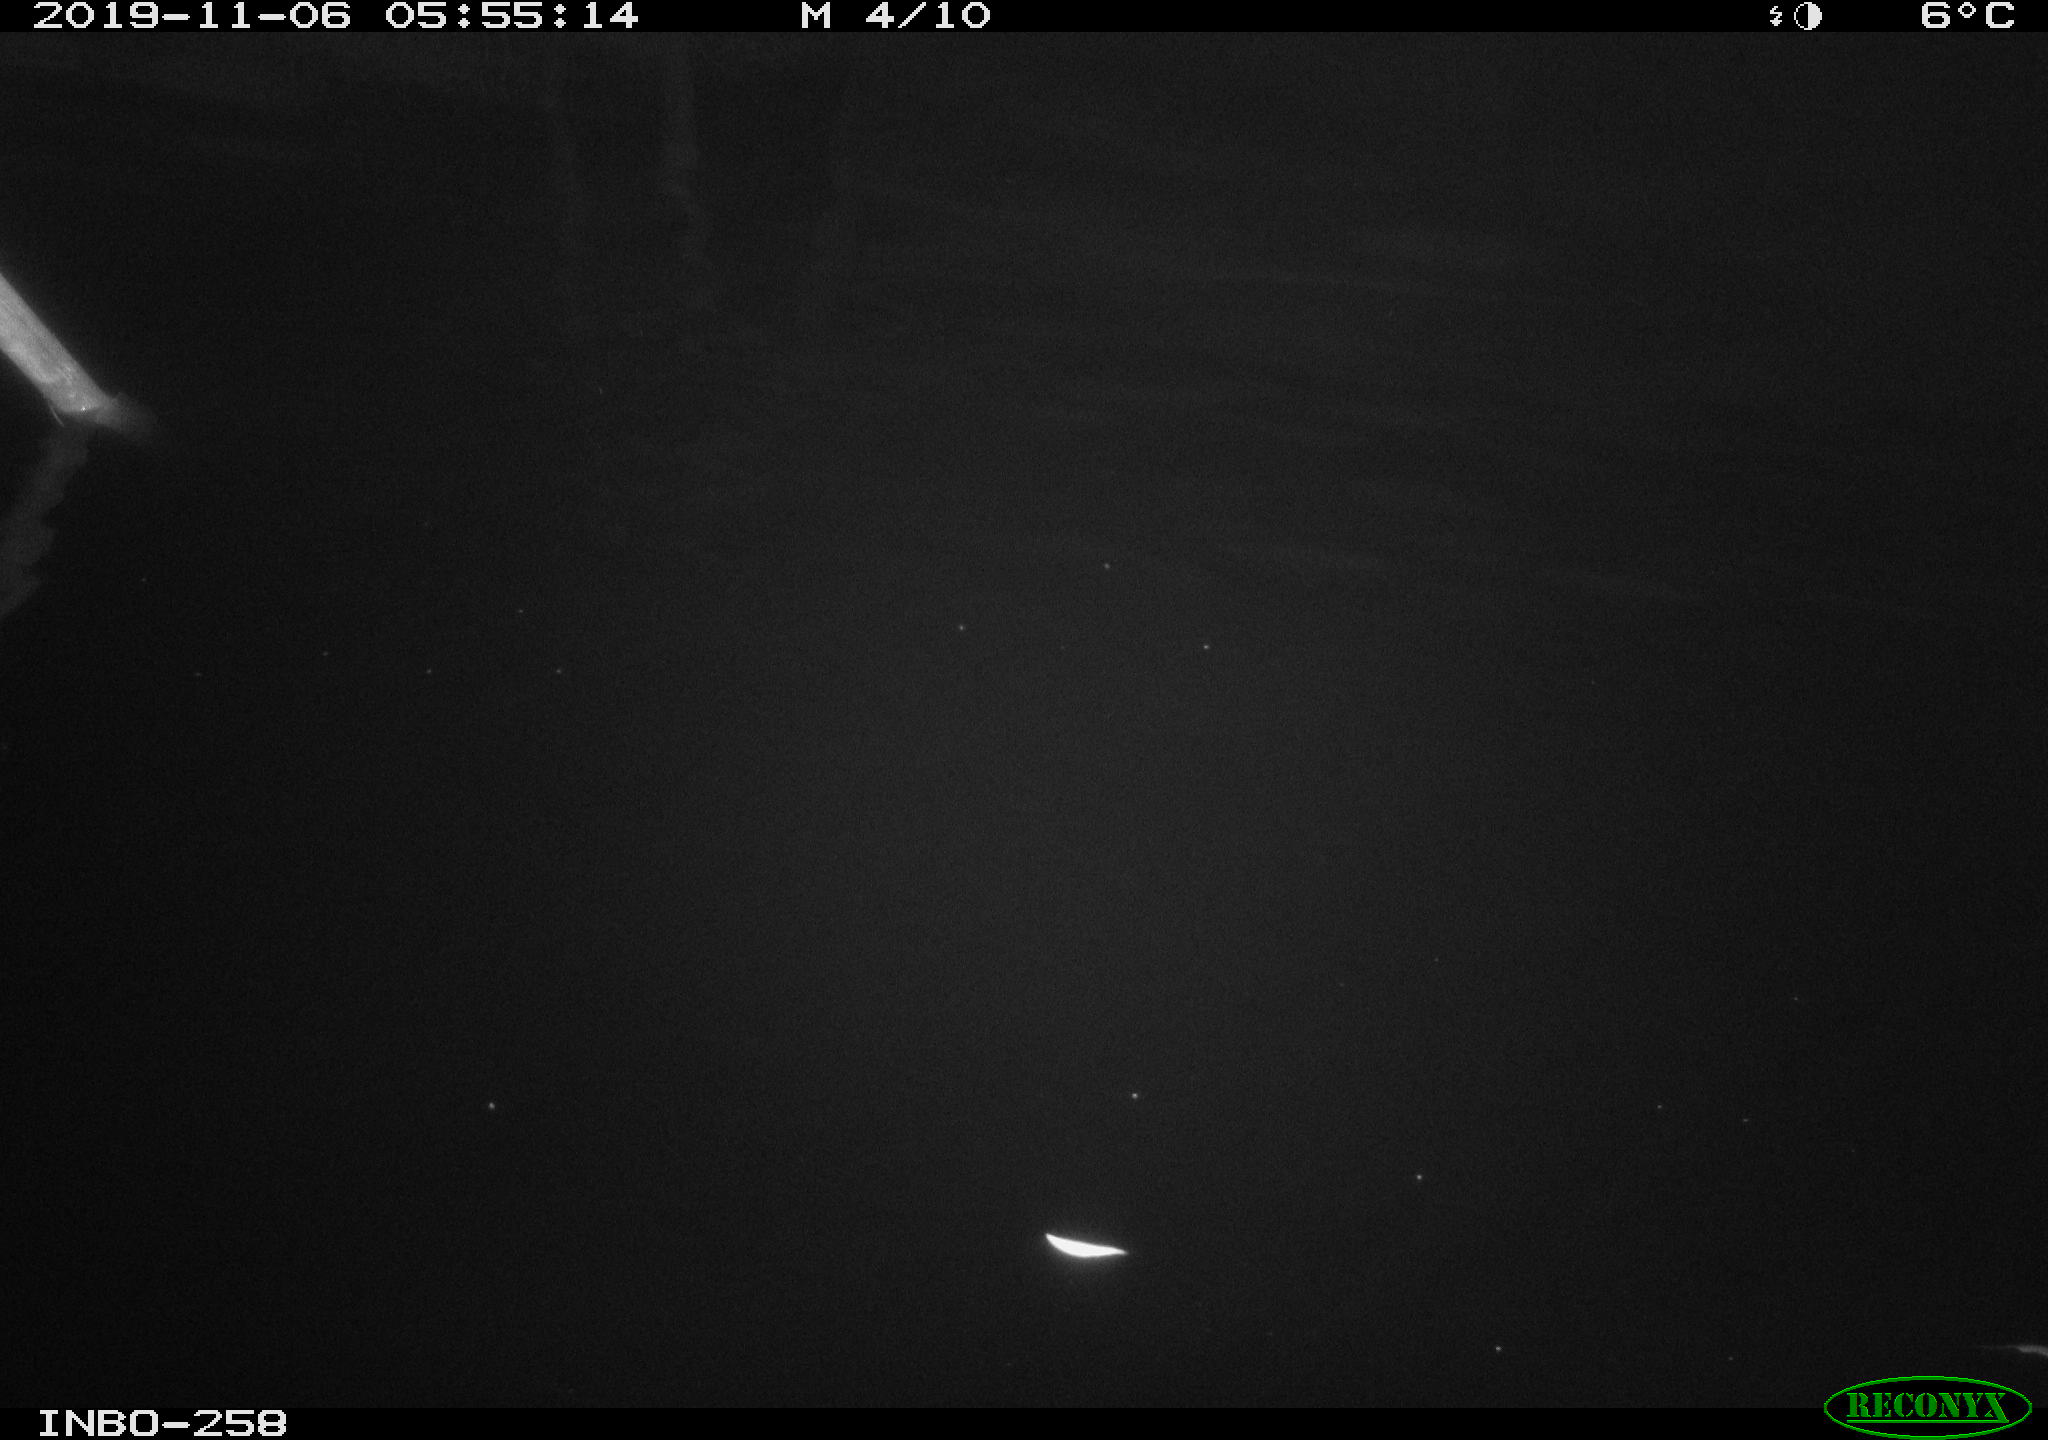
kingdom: Animalia
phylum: Chordata
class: Aves
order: Anseriformes
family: Anatidae
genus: Anas
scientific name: Anas platyrhynchos
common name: Mallard
